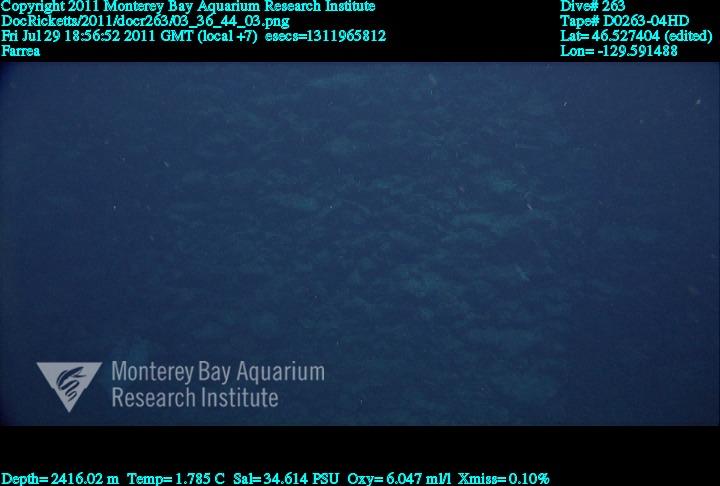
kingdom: Animalia
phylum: Porifera
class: Hexactinellida
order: Sceptrulophora
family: Farreidae
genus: Farrea
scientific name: Farrea
